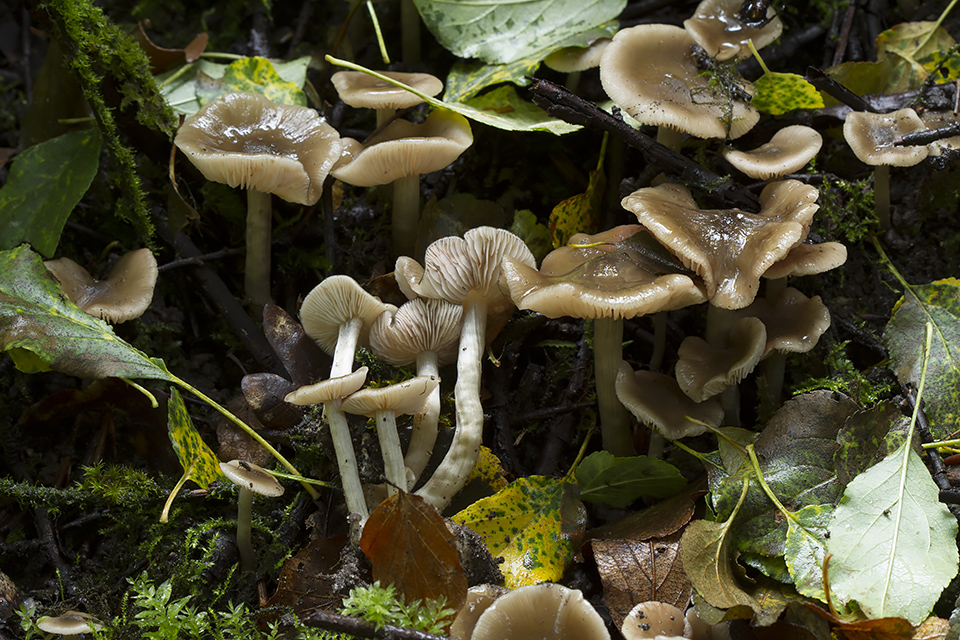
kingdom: Fungi
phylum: Basidiomycota
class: Agaricomycetes
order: Agaricales
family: Entolomataceae
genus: Entoloma
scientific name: Entoloma
